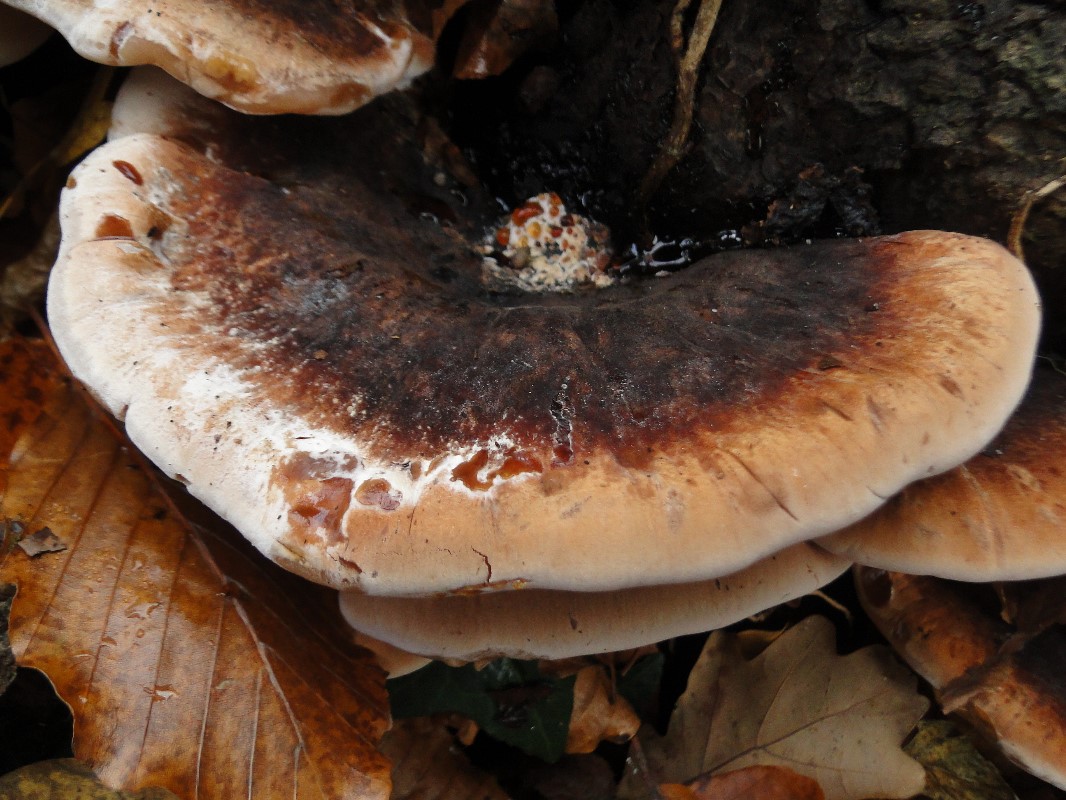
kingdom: Fungi
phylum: Basidiomycota
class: Agaricomycetes
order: Polyporales
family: Ischnodermataceae
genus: Ischnoderma
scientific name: Ischnoderma resinosum
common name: løv-tjæreporesvamp
